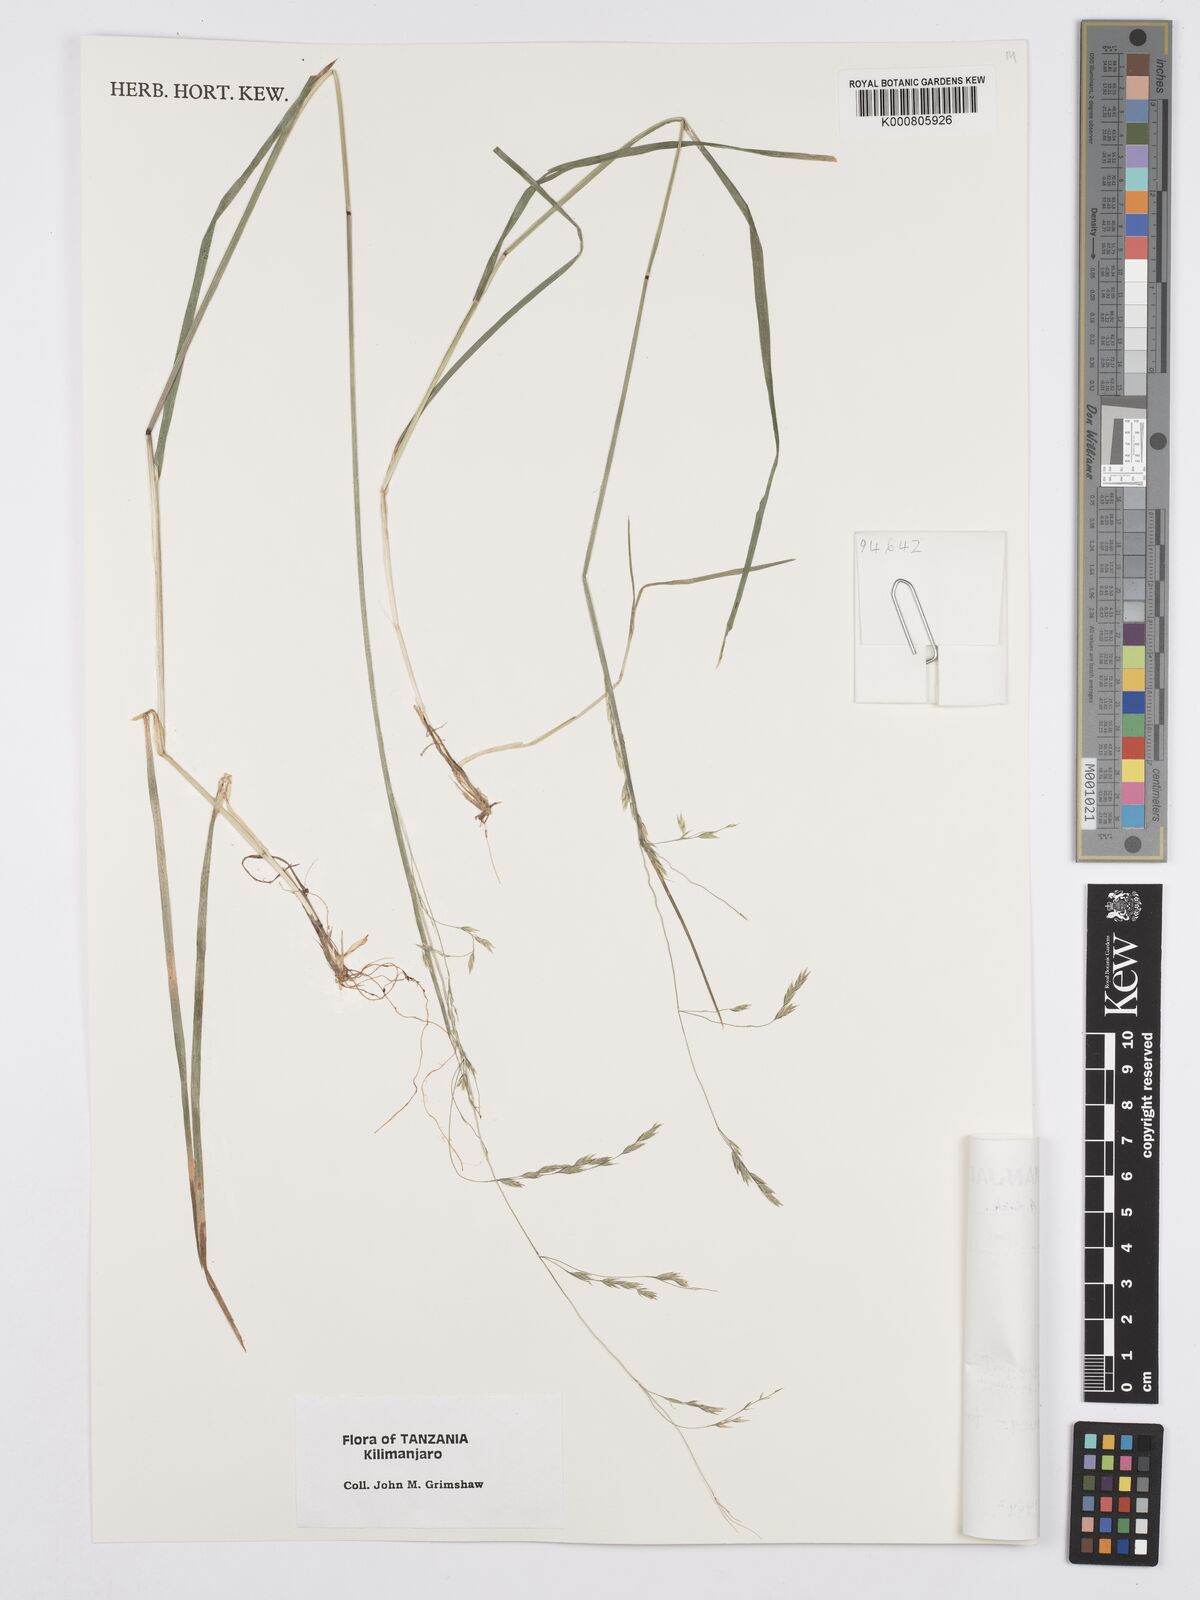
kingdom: Plantae
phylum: Tracheophyta
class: Liliopsida
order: Poales
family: Poaceae
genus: Poa
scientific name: Poa schimperiana
